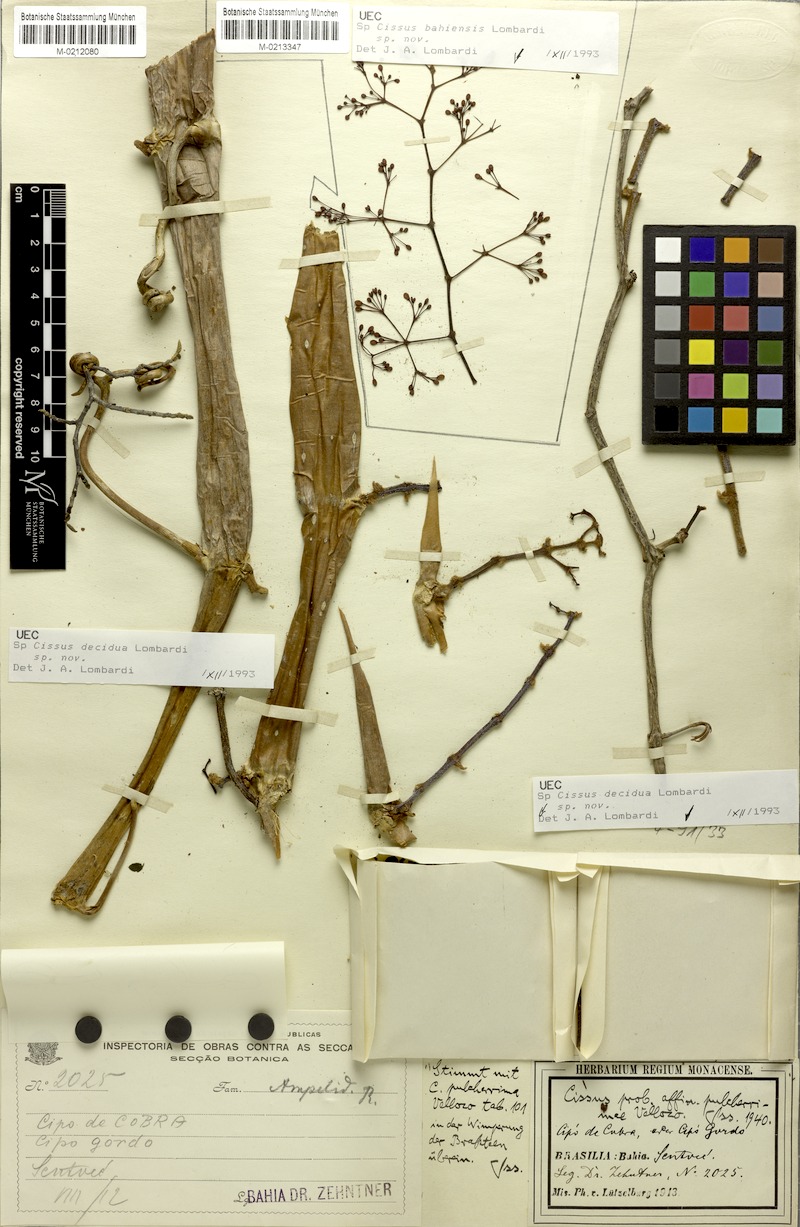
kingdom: Plantae
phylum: Tracheophyta
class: Magnoliopsida
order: Vitales
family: Vitaceae
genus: Cissus
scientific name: Cissus decidua
